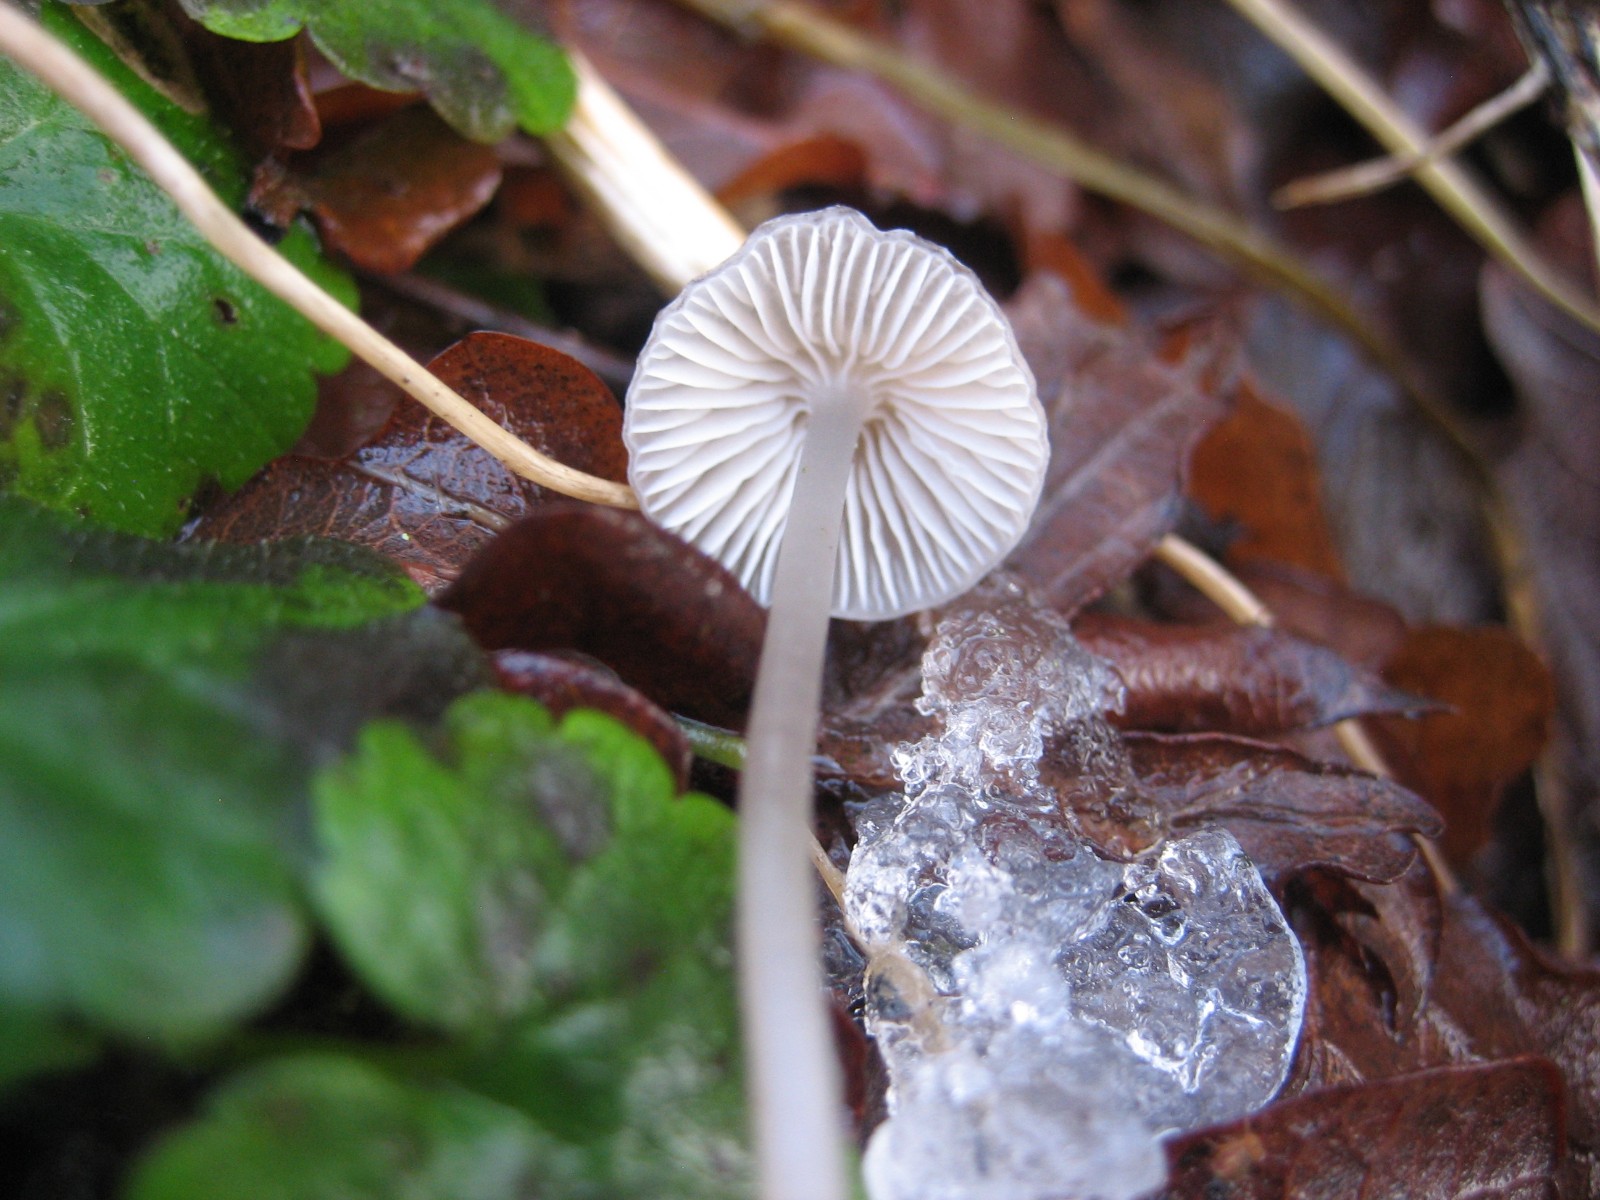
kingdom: Fungi
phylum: Basidiomycota
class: Agaricomycetes
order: Agaricales
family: Mycenaceae
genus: Mycena
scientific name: Mycena
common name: huesvamp
